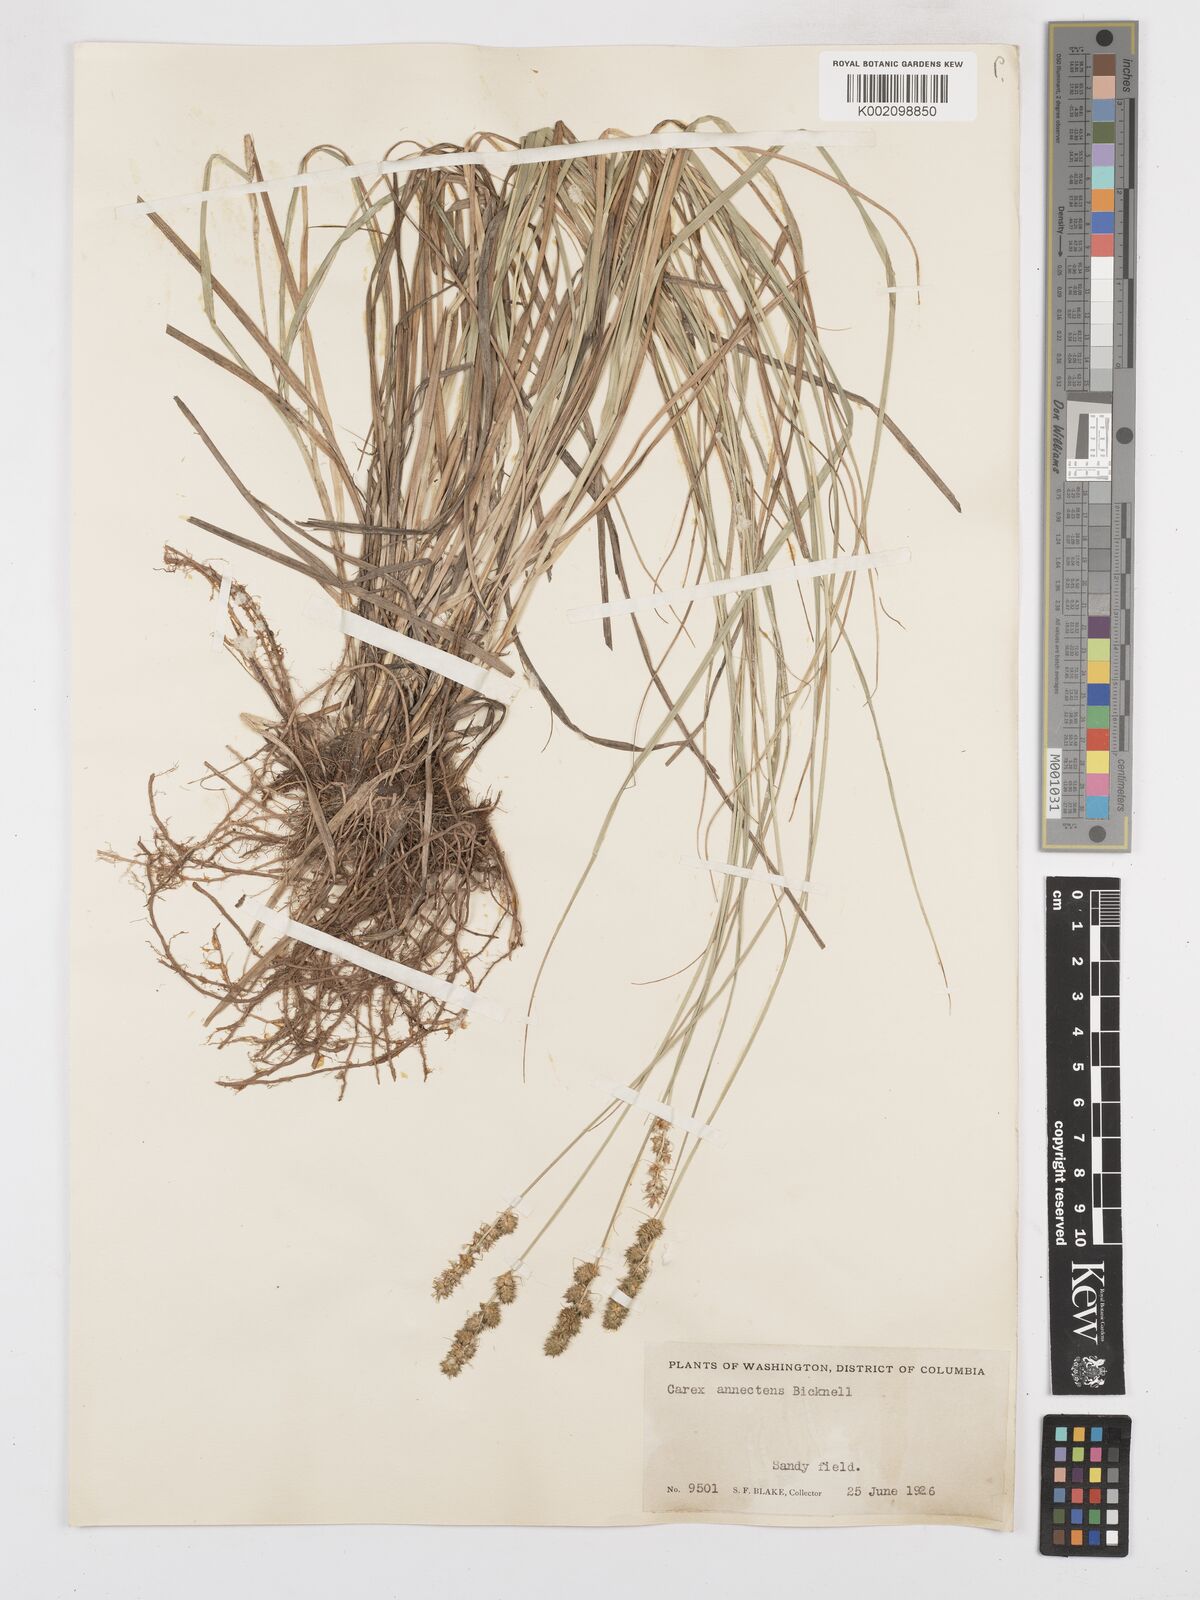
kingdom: Plantae
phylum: Tracheophyta
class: Liliopsida
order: Poales
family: Cyperaceae
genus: Carex
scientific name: Carex annectens
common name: Large fox sedge
